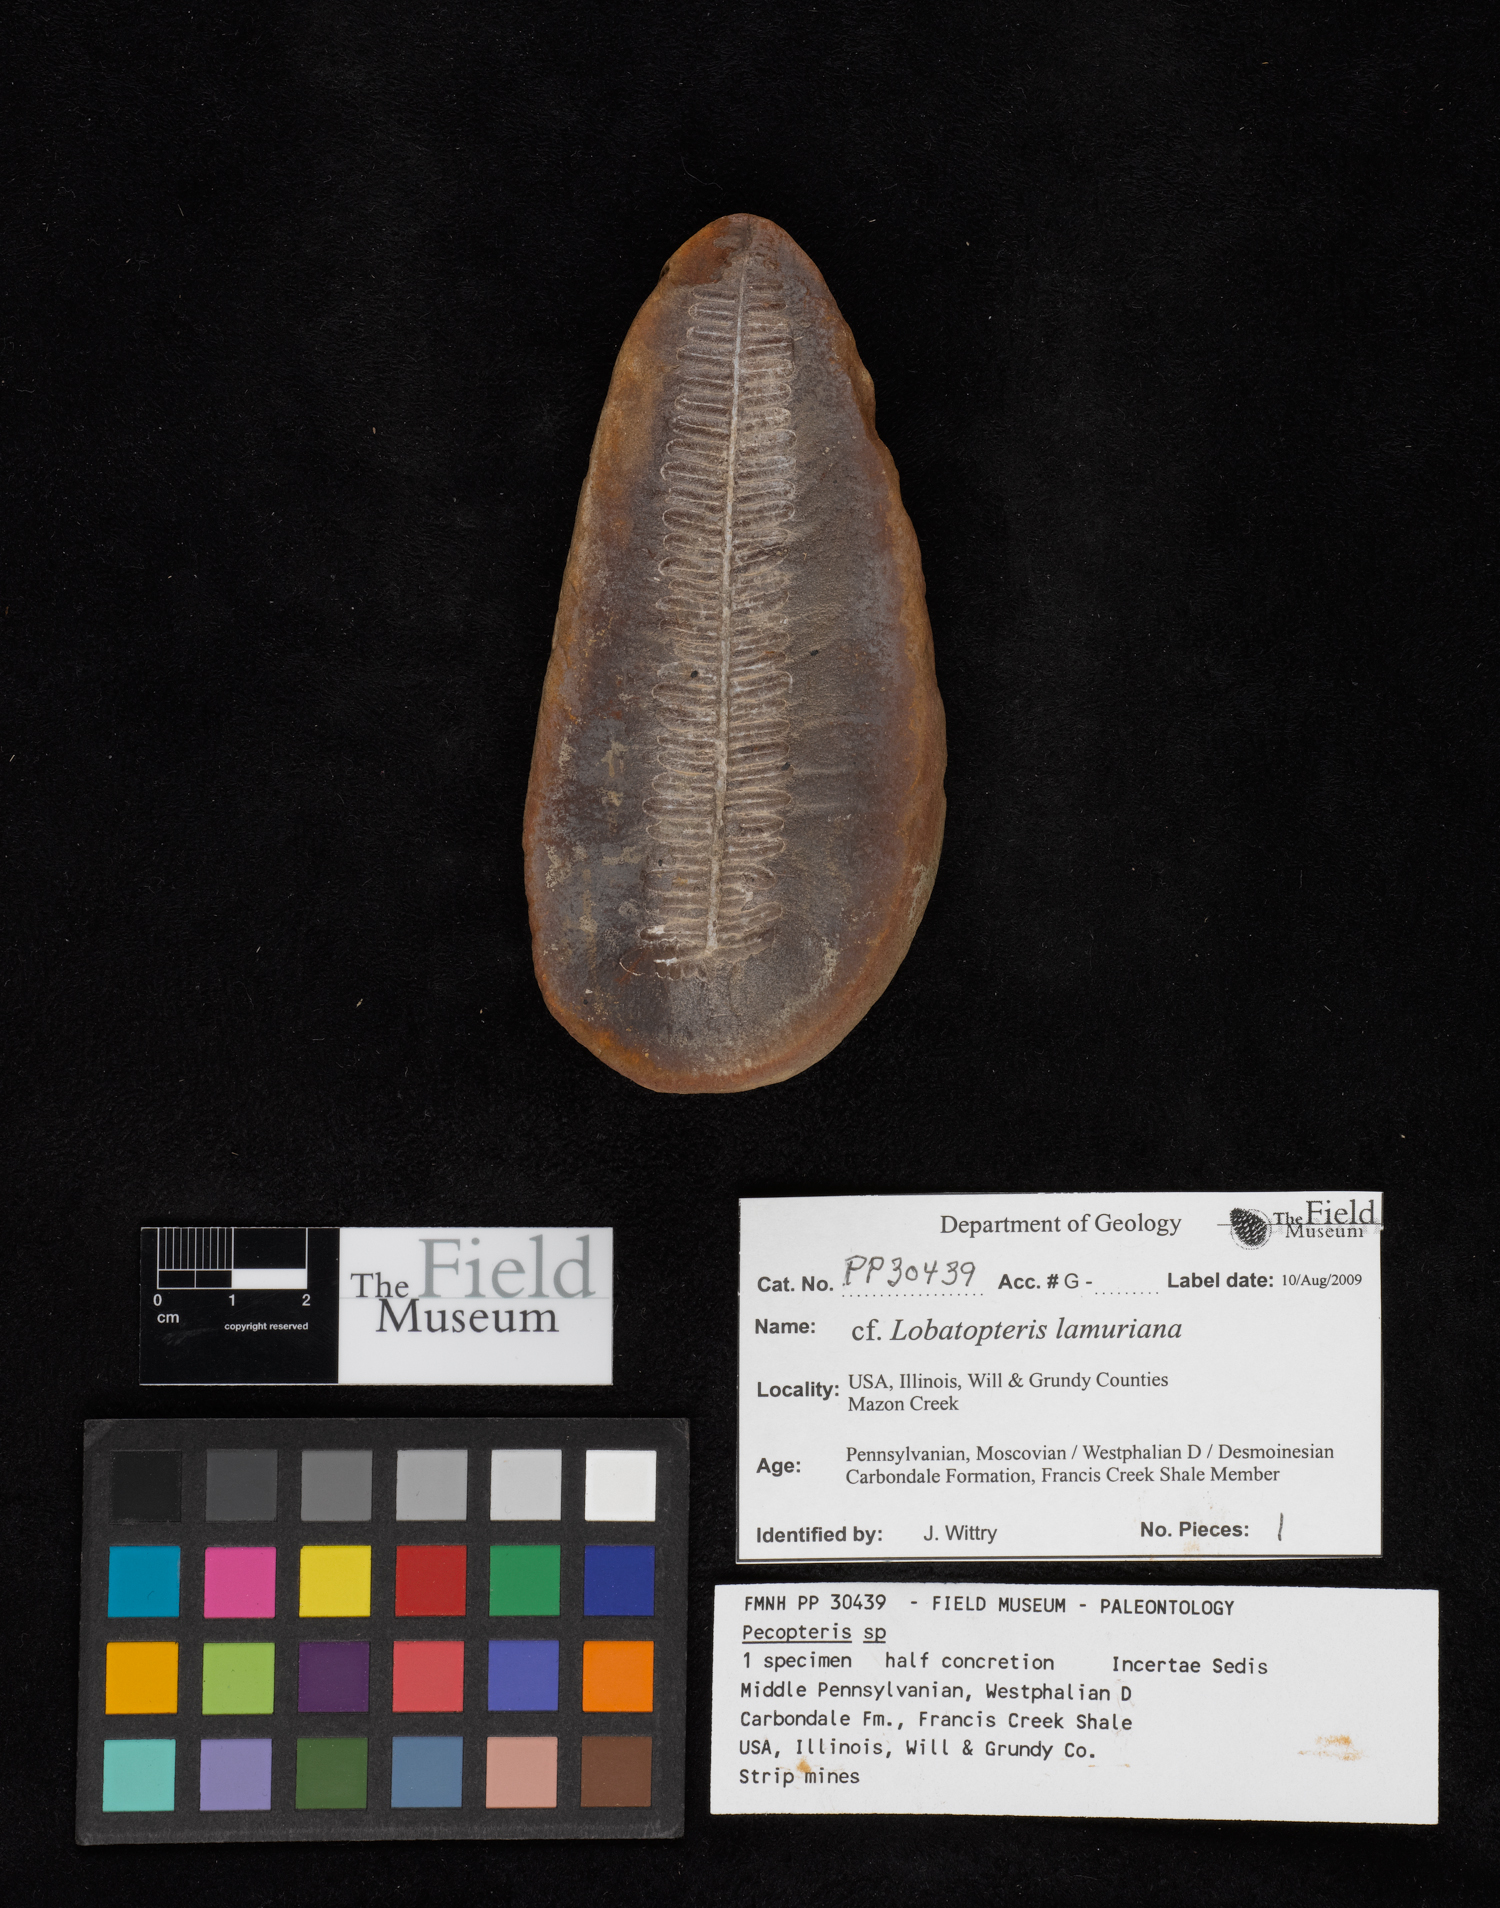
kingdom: Plantae
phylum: Tracheophyta
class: Polypodiopsida
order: Marattiales
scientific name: Marattiales
